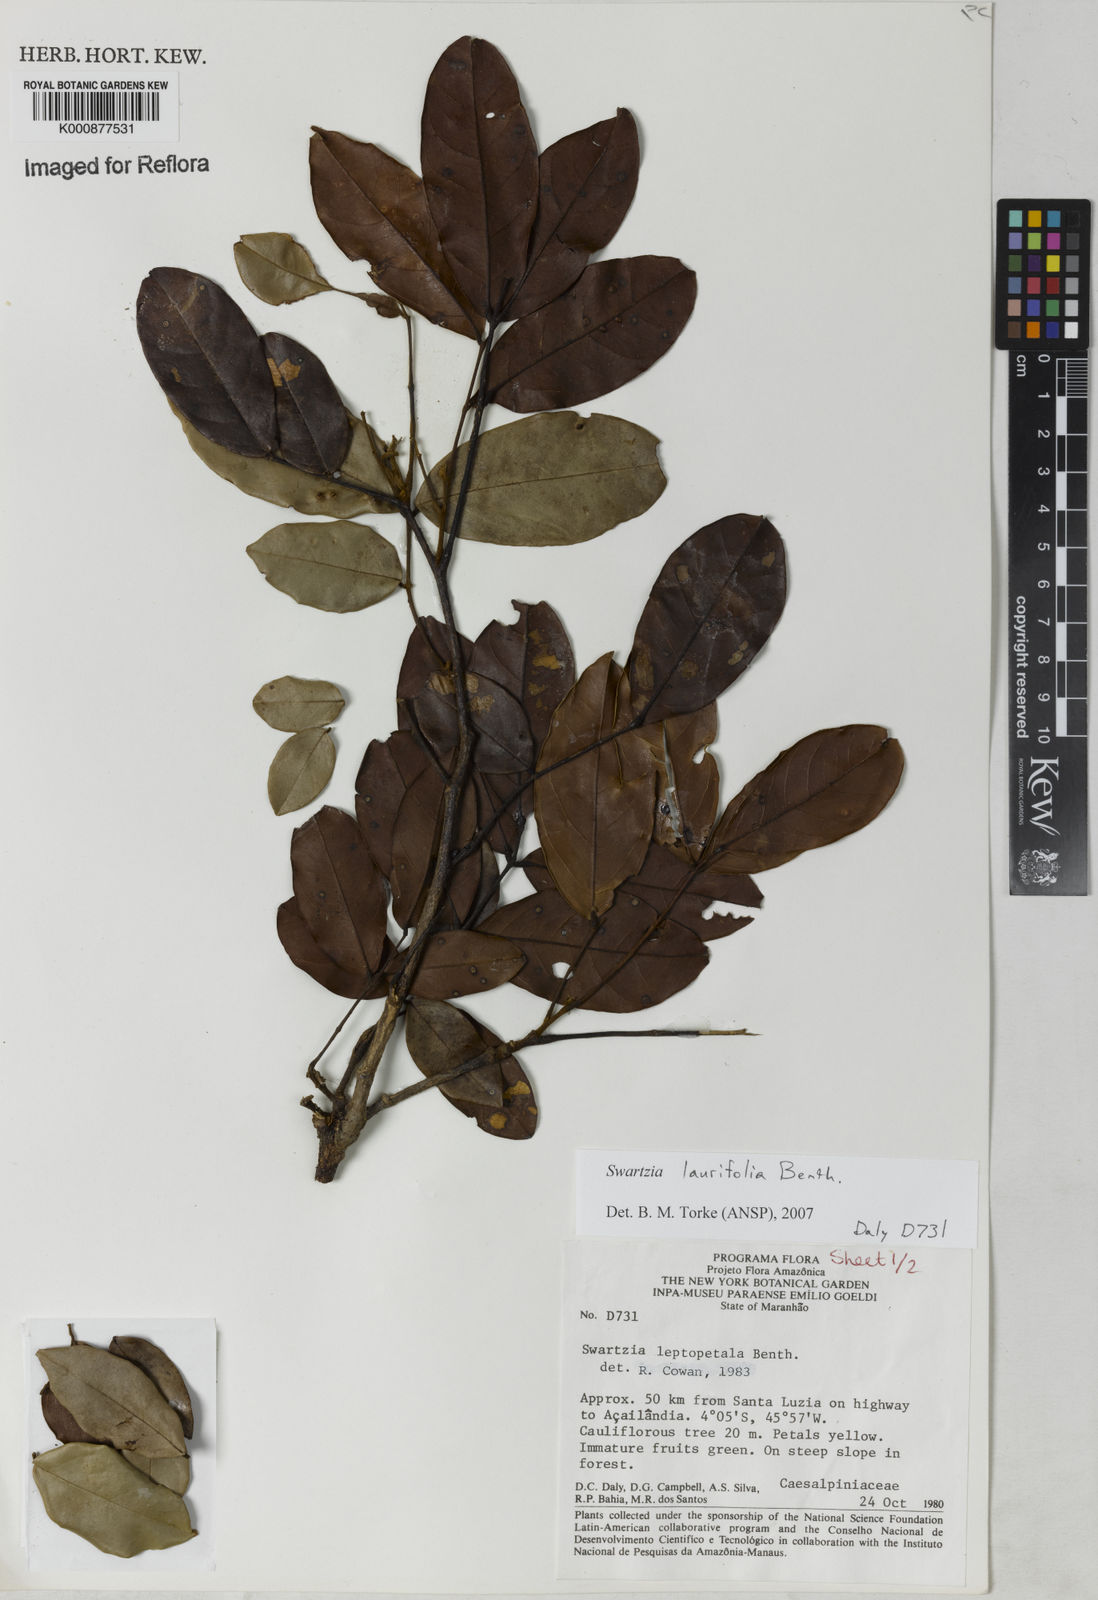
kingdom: Plantae
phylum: Tracheophyta
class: Magnoliopsida
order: Fabales
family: Fabaceae
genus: Swartzia
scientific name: Swartzia laurifolia
